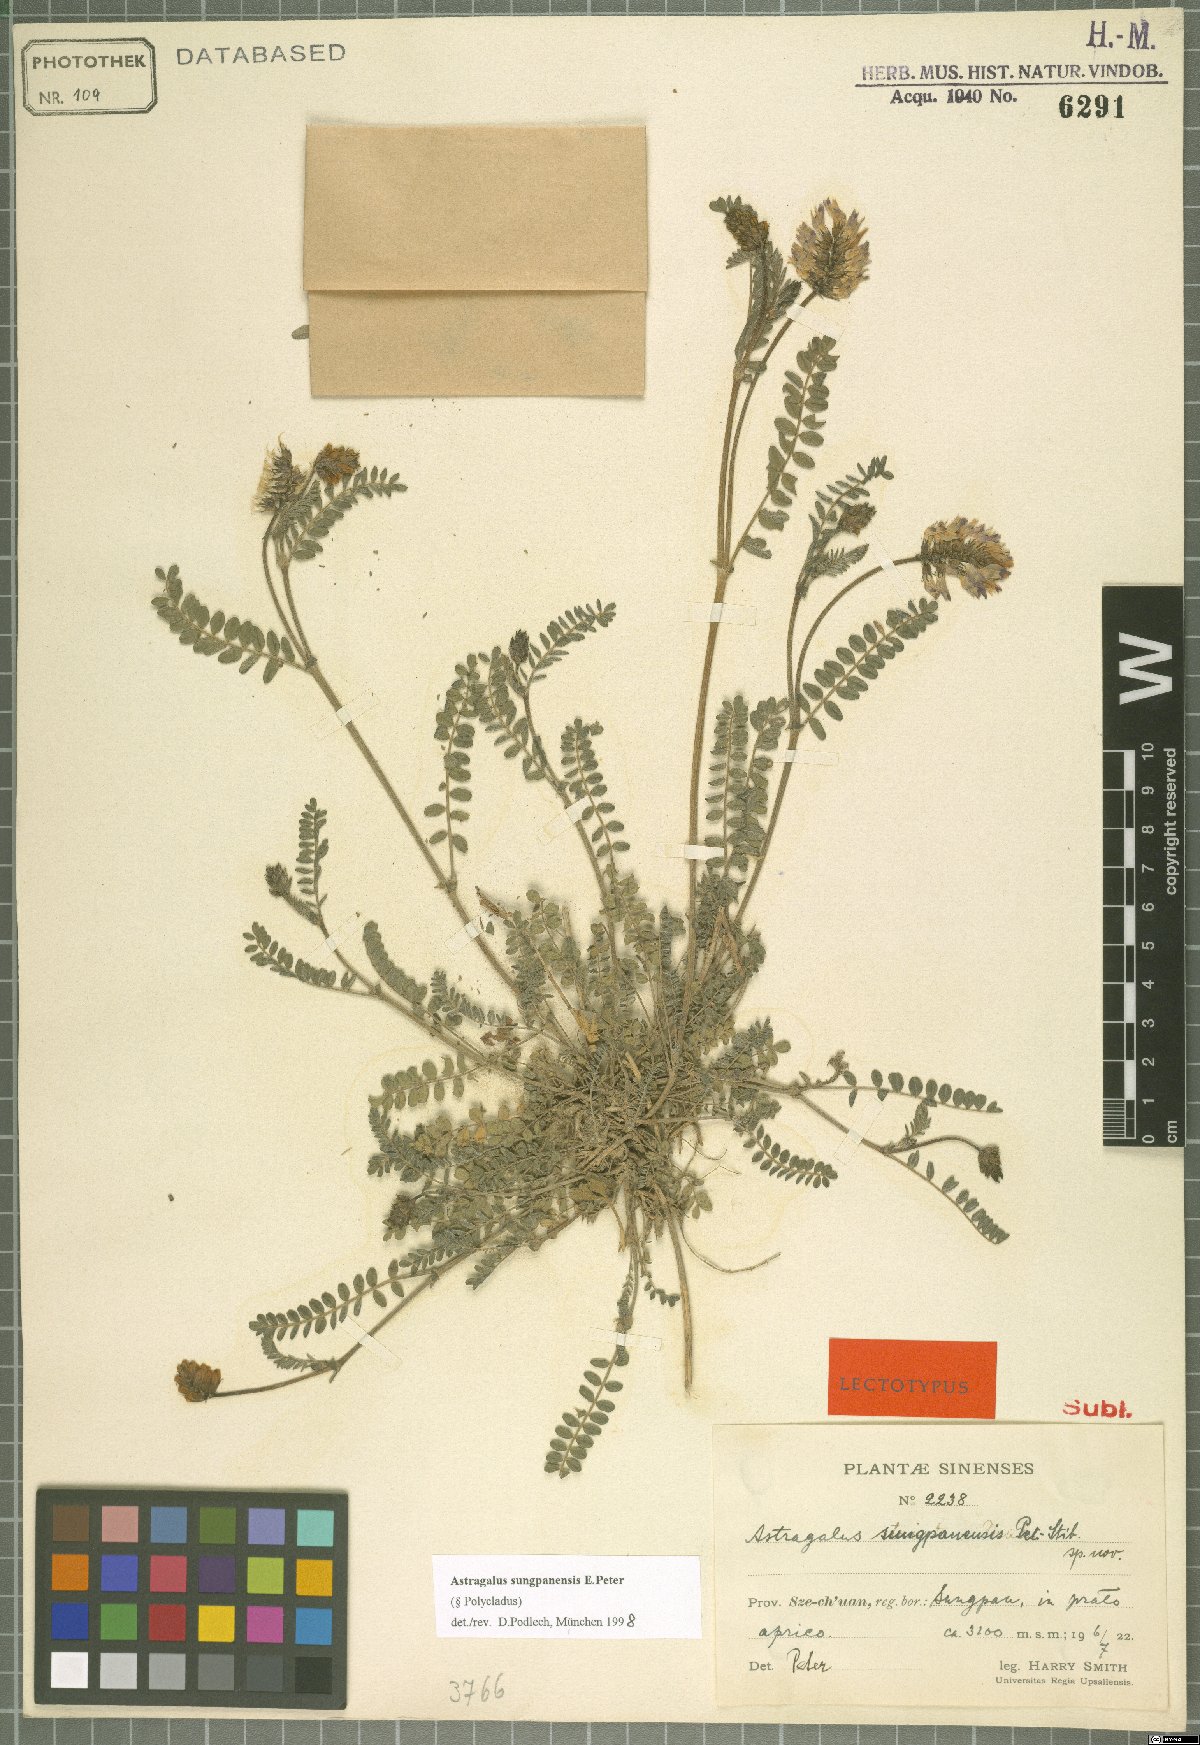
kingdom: Plantae
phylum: Tracheophyta
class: Magnoliopsida
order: Fabales
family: Fabaceae
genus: Astragalus
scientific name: Astragalus sungpanensis
